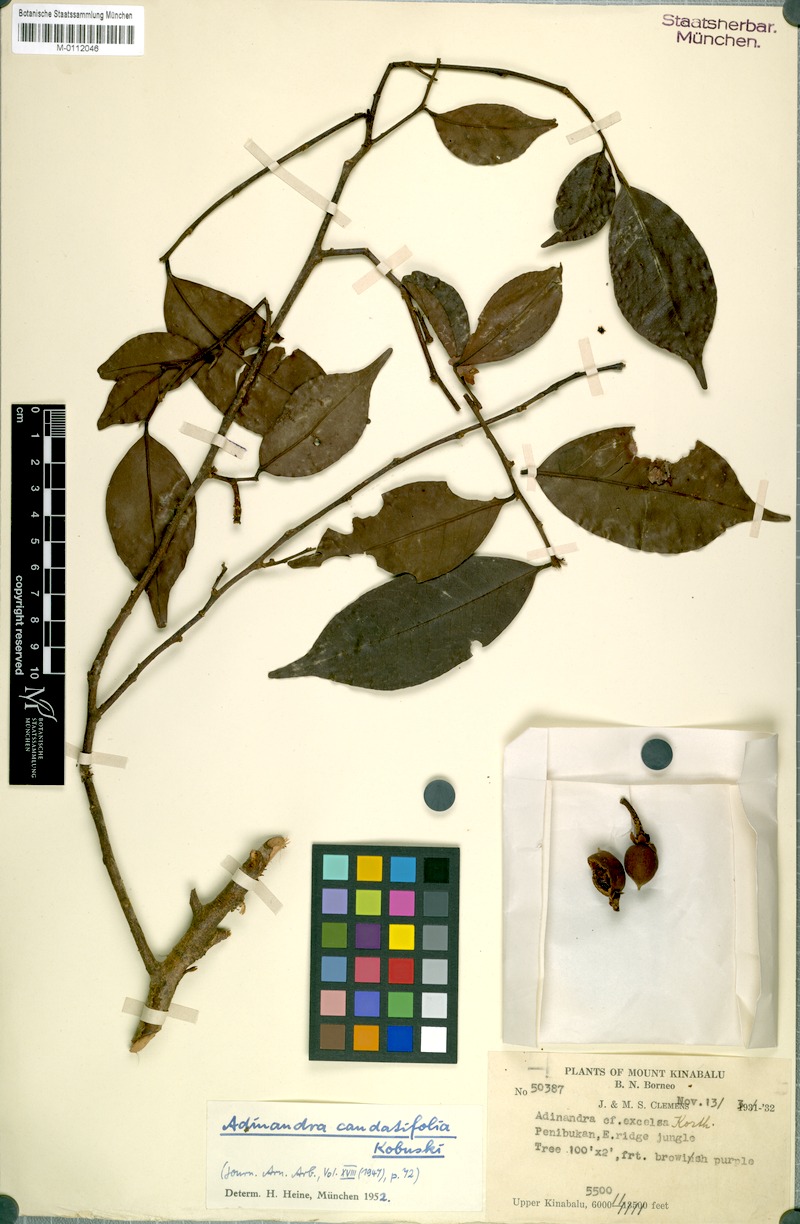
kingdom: Plantae
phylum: Tracheophyta
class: Magnoliopsida
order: Ericales
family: Pentaphylacaceae
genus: Adinandra
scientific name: Adinandra acuminata
